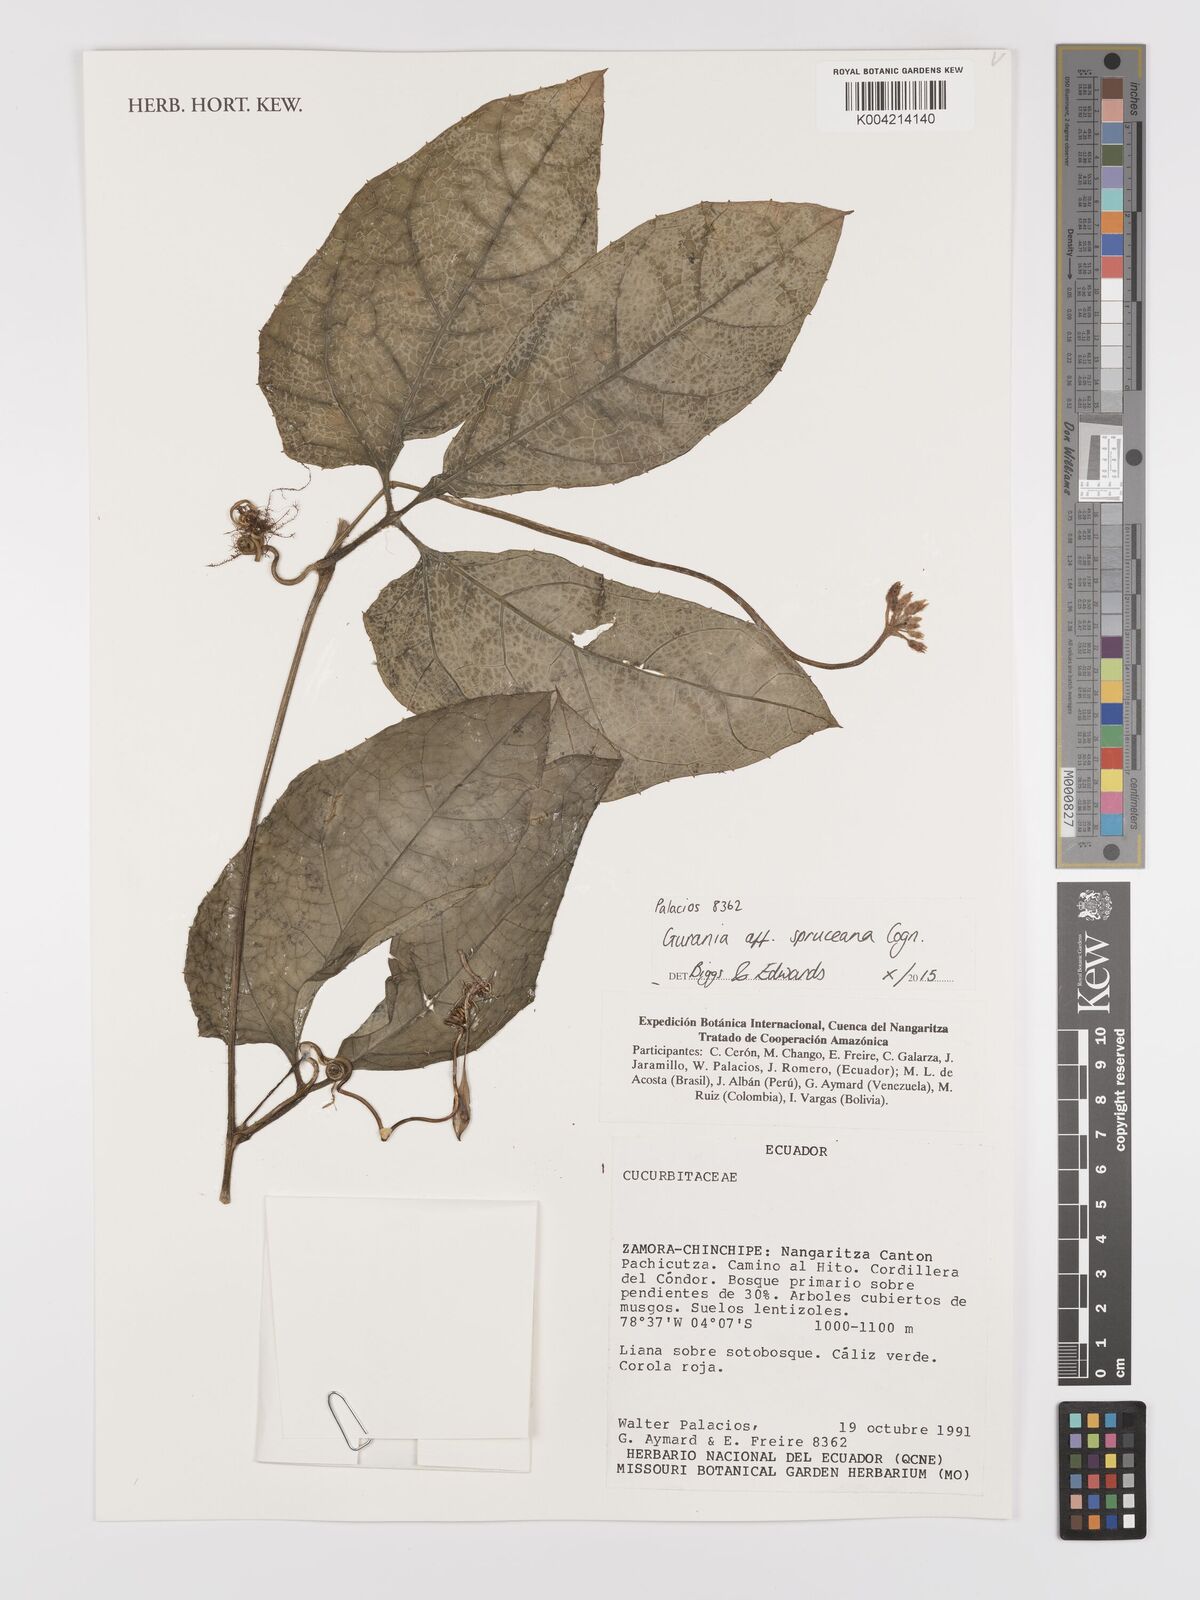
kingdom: Plantae
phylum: Tracheophyta
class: Magnoliopsida
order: Cucurbitales
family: Cucurbitaceae
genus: Gurania
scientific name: Gurania spruceana
